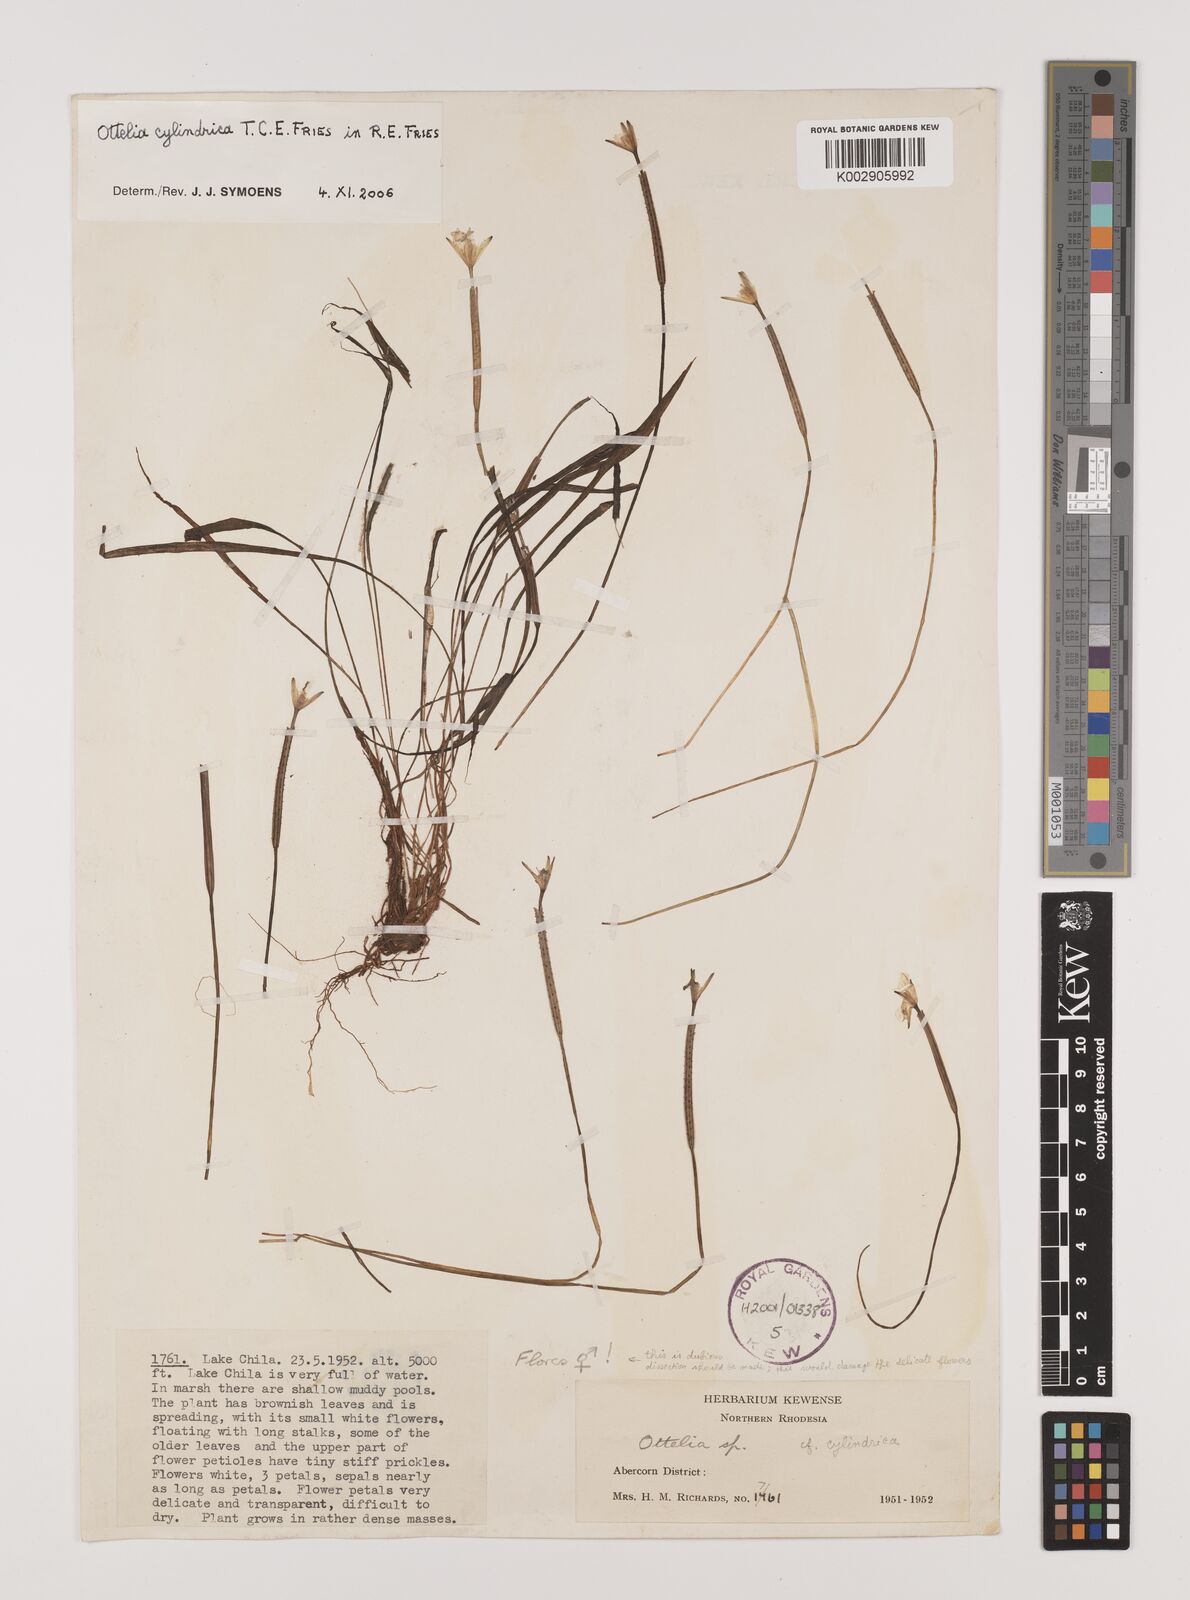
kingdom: Plantae
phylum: Tracheophyta
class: Liliopsida
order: Alismatales
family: Hydrocharitaceae
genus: Ottelia
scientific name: Ottelia cylindrica
